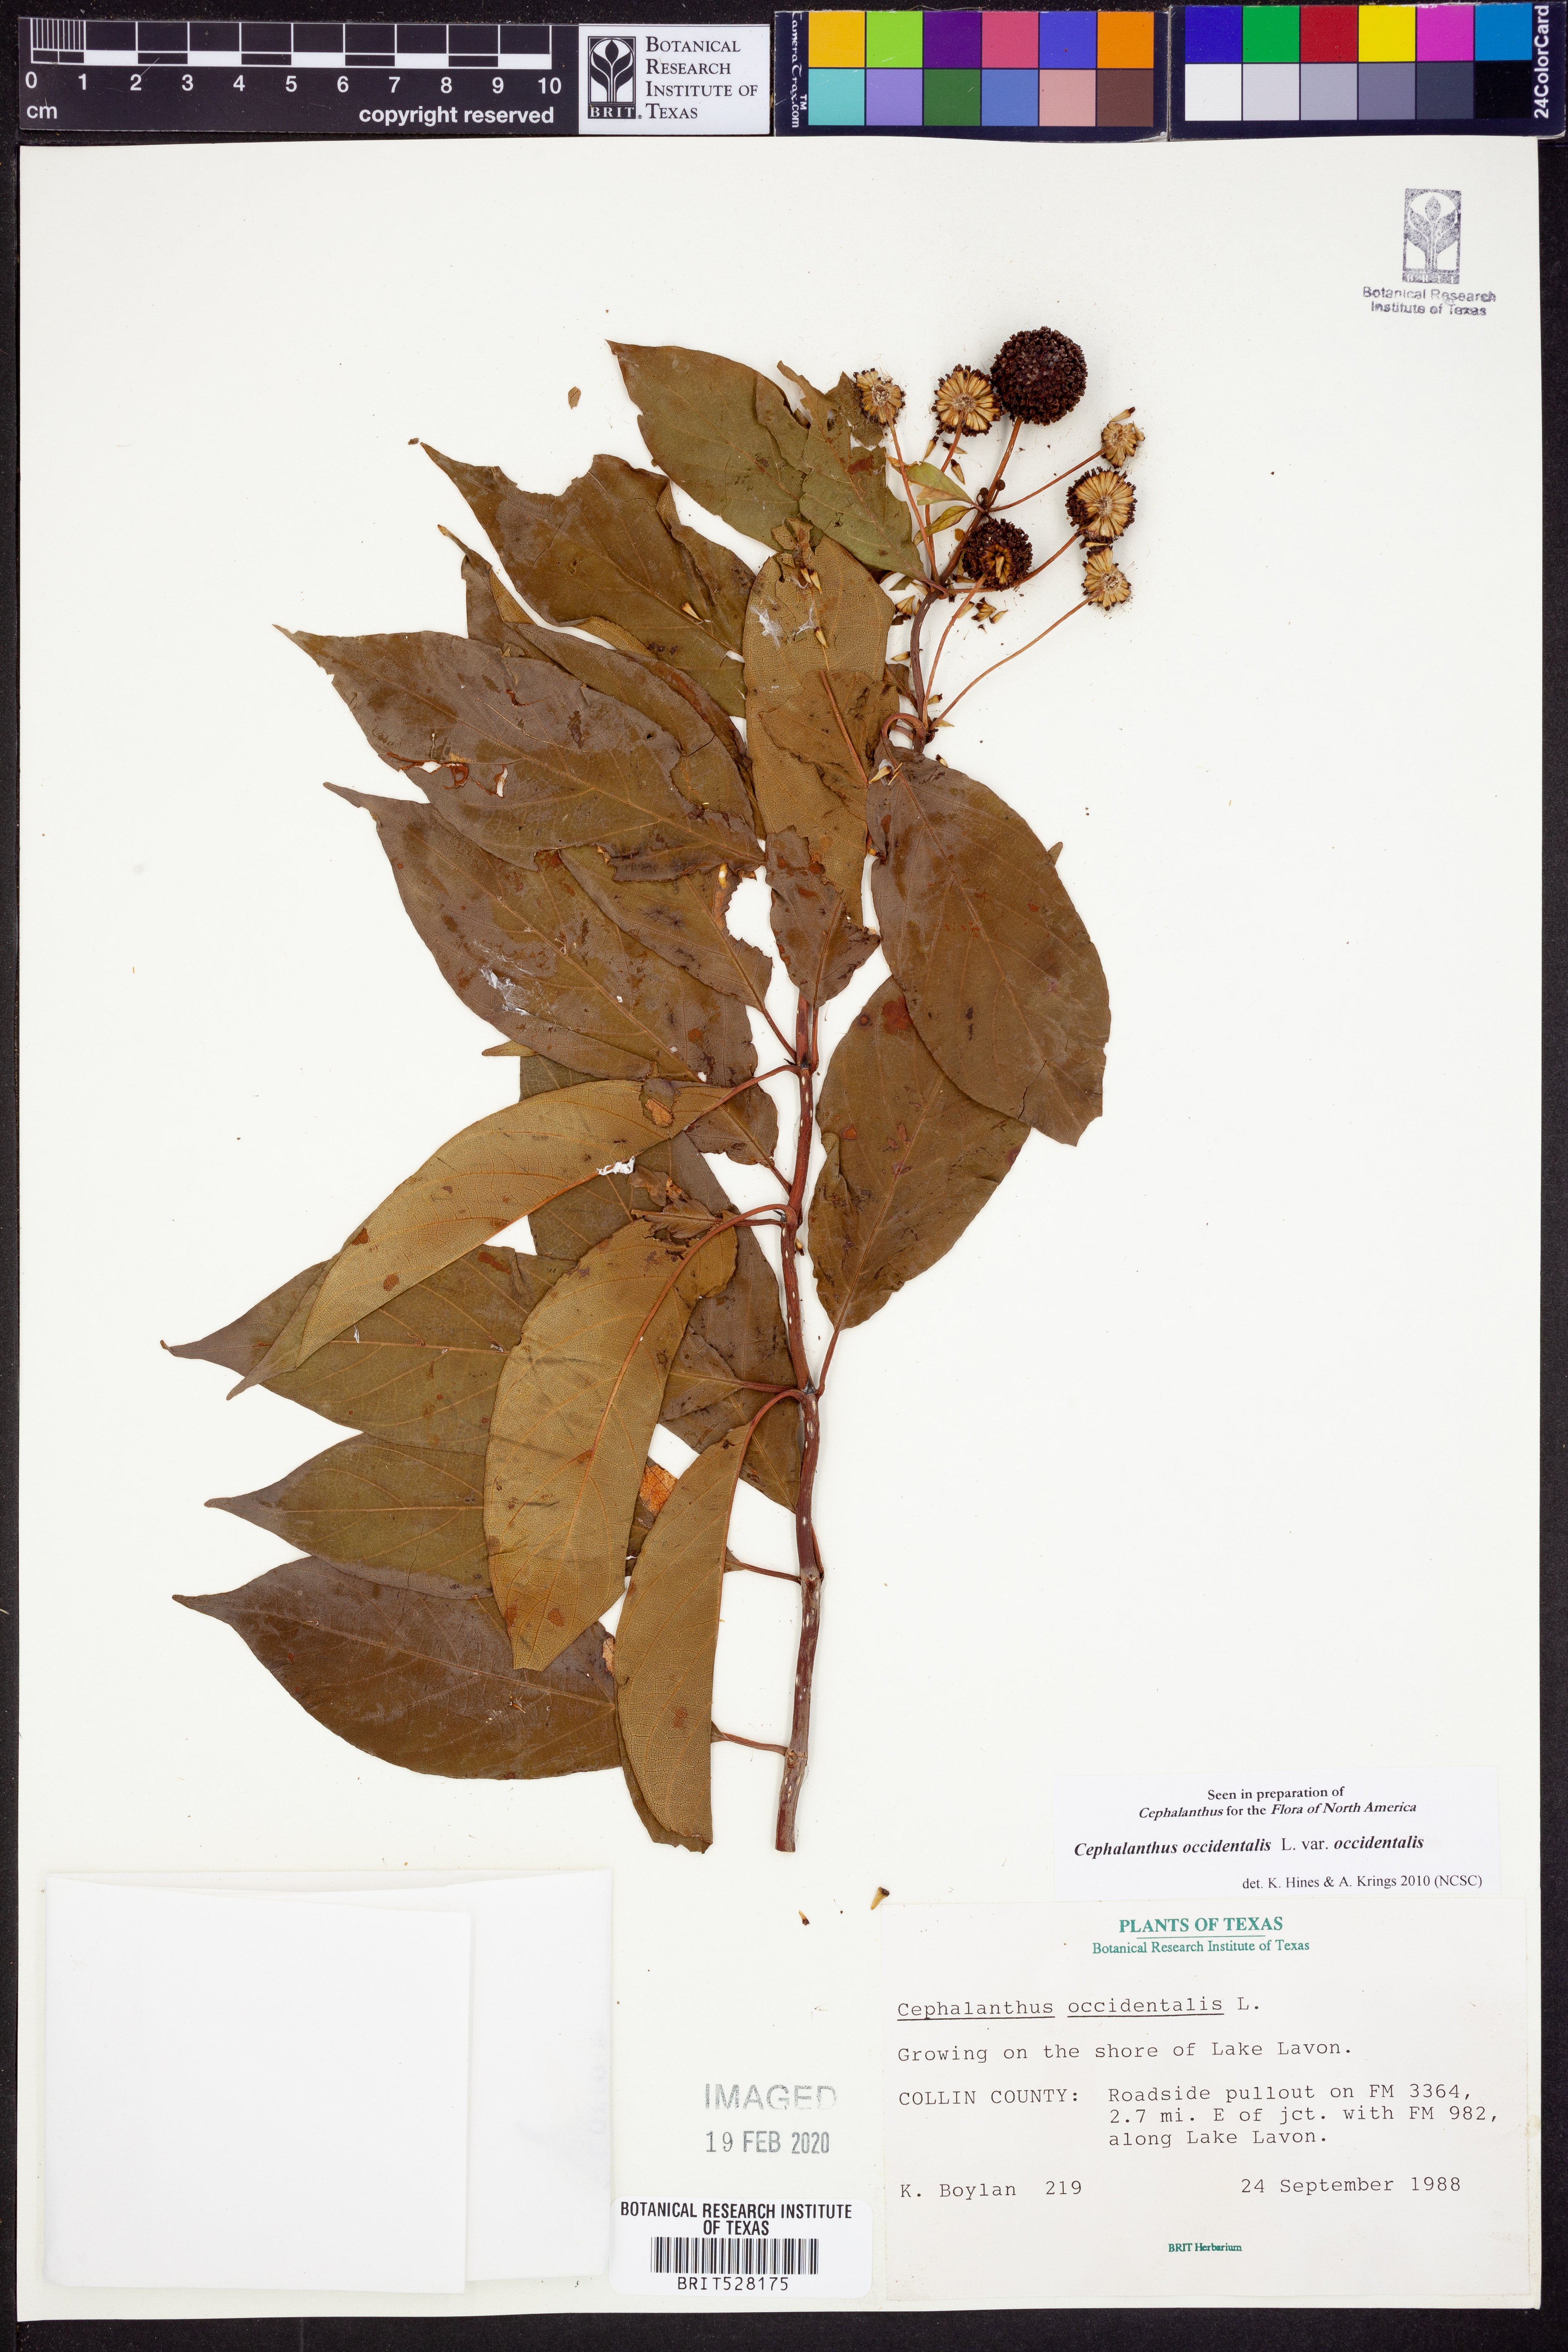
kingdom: Plantae
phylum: Tracheophyta
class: Magnoliopsida
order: Gentianales
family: Rubiaceae
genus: Cephalanthus
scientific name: Cephalanthus occidentalis
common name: Button-willow
